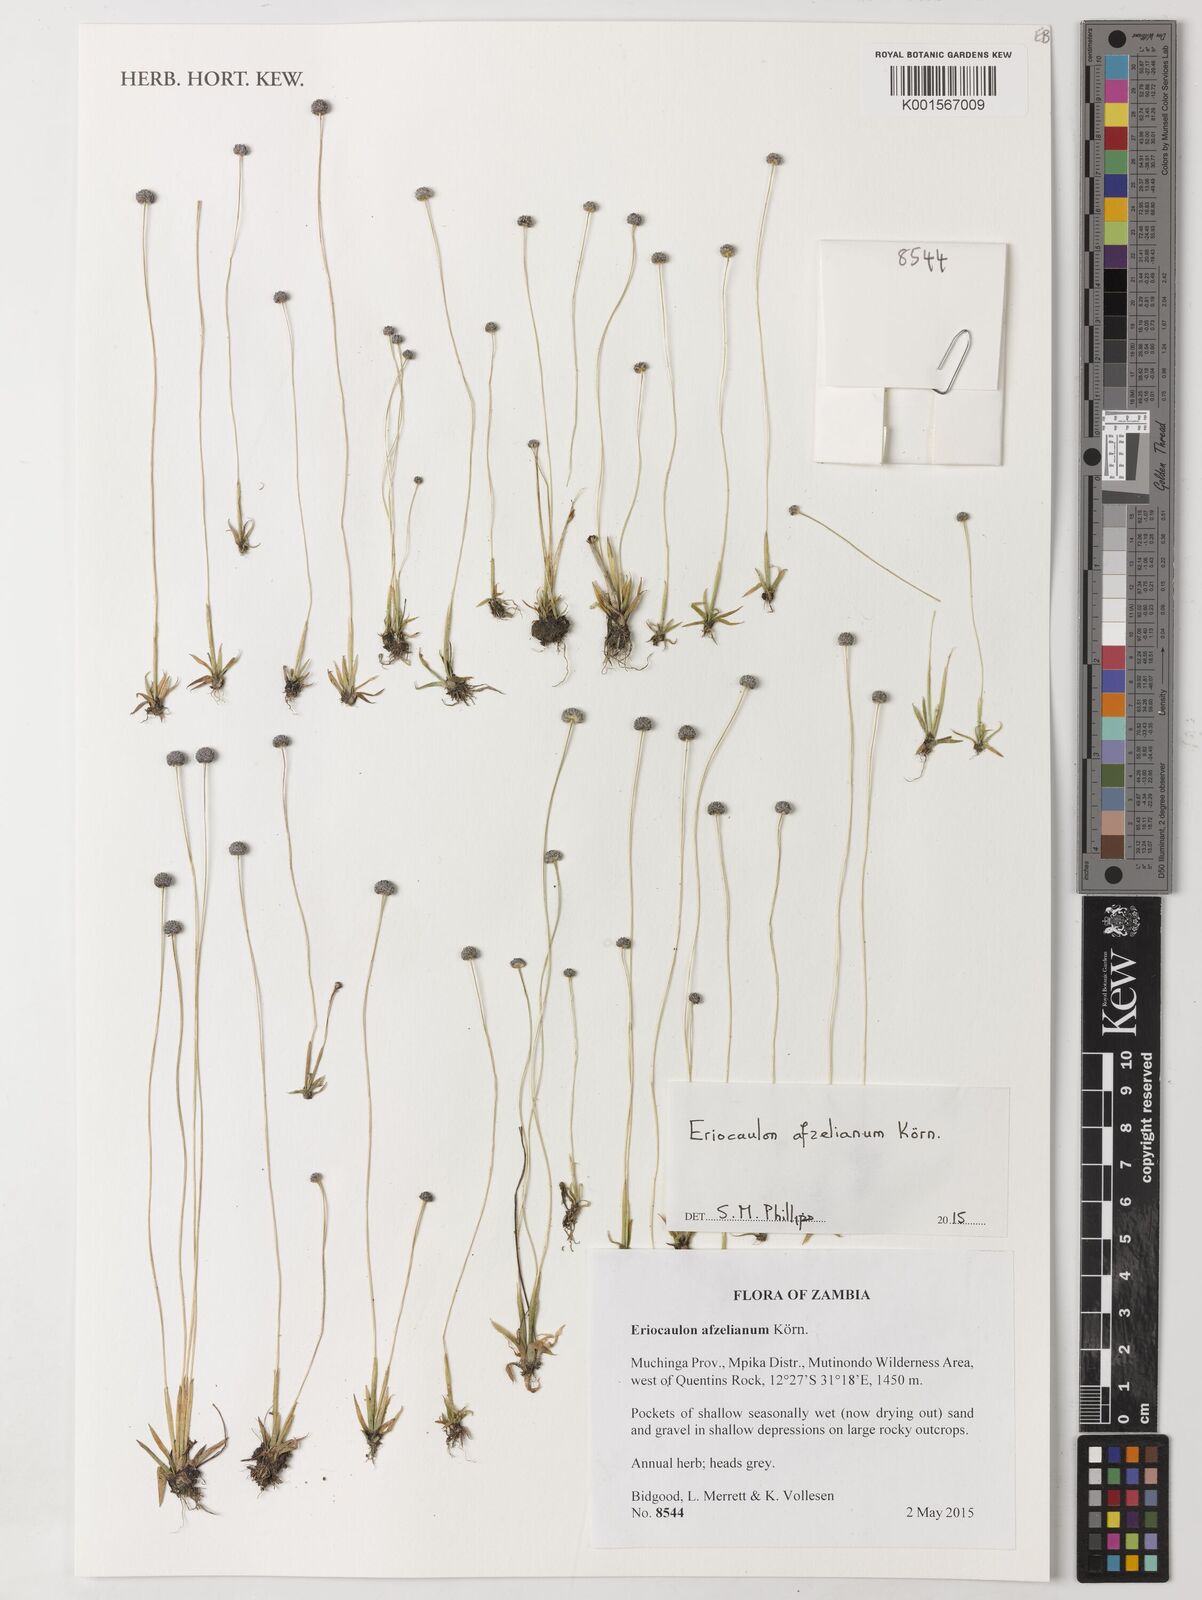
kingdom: Plantae
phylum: Tracheophyta
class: Liliopsida
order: Poales
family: Eriocaulaceae
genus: Eriocaulon
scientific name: Eriocaulon afzelianum
